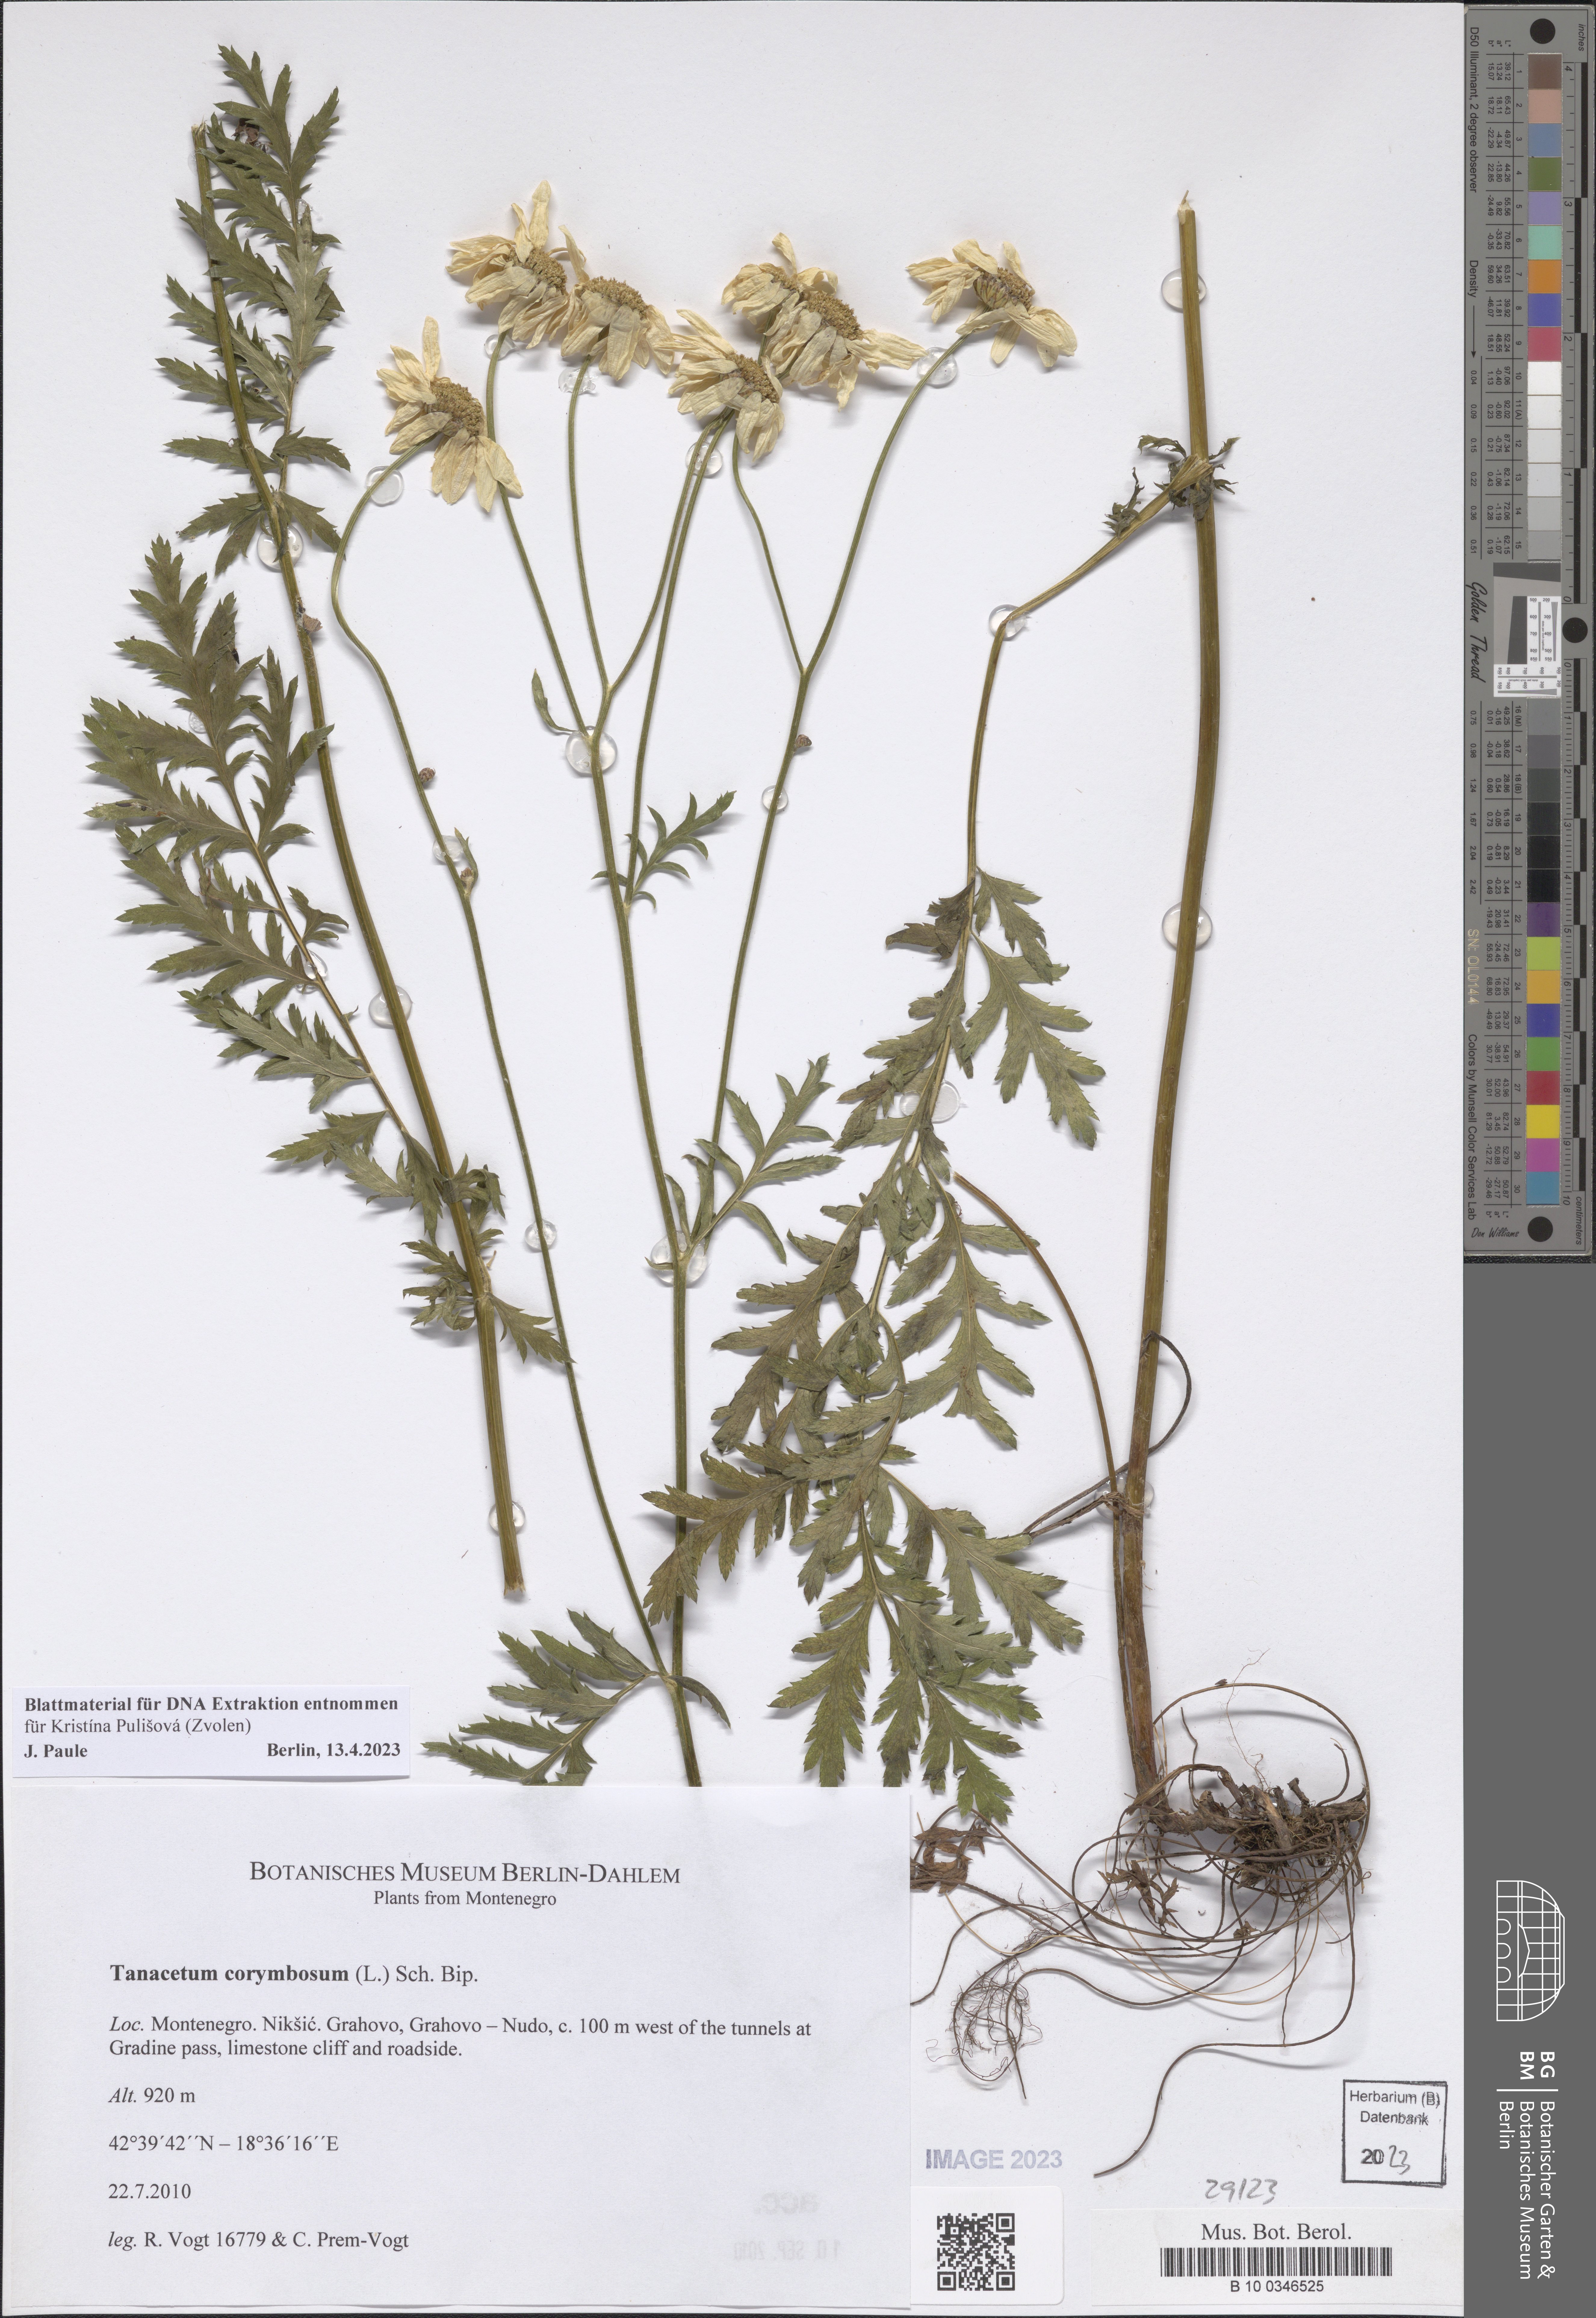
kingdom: Plantae
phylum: Tracheophyta
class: Magnoliopsida
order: Asterales
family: Asteraceae
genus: Tanacetum
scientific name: Tanacetum corymbosum
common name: Scentless feverfew
